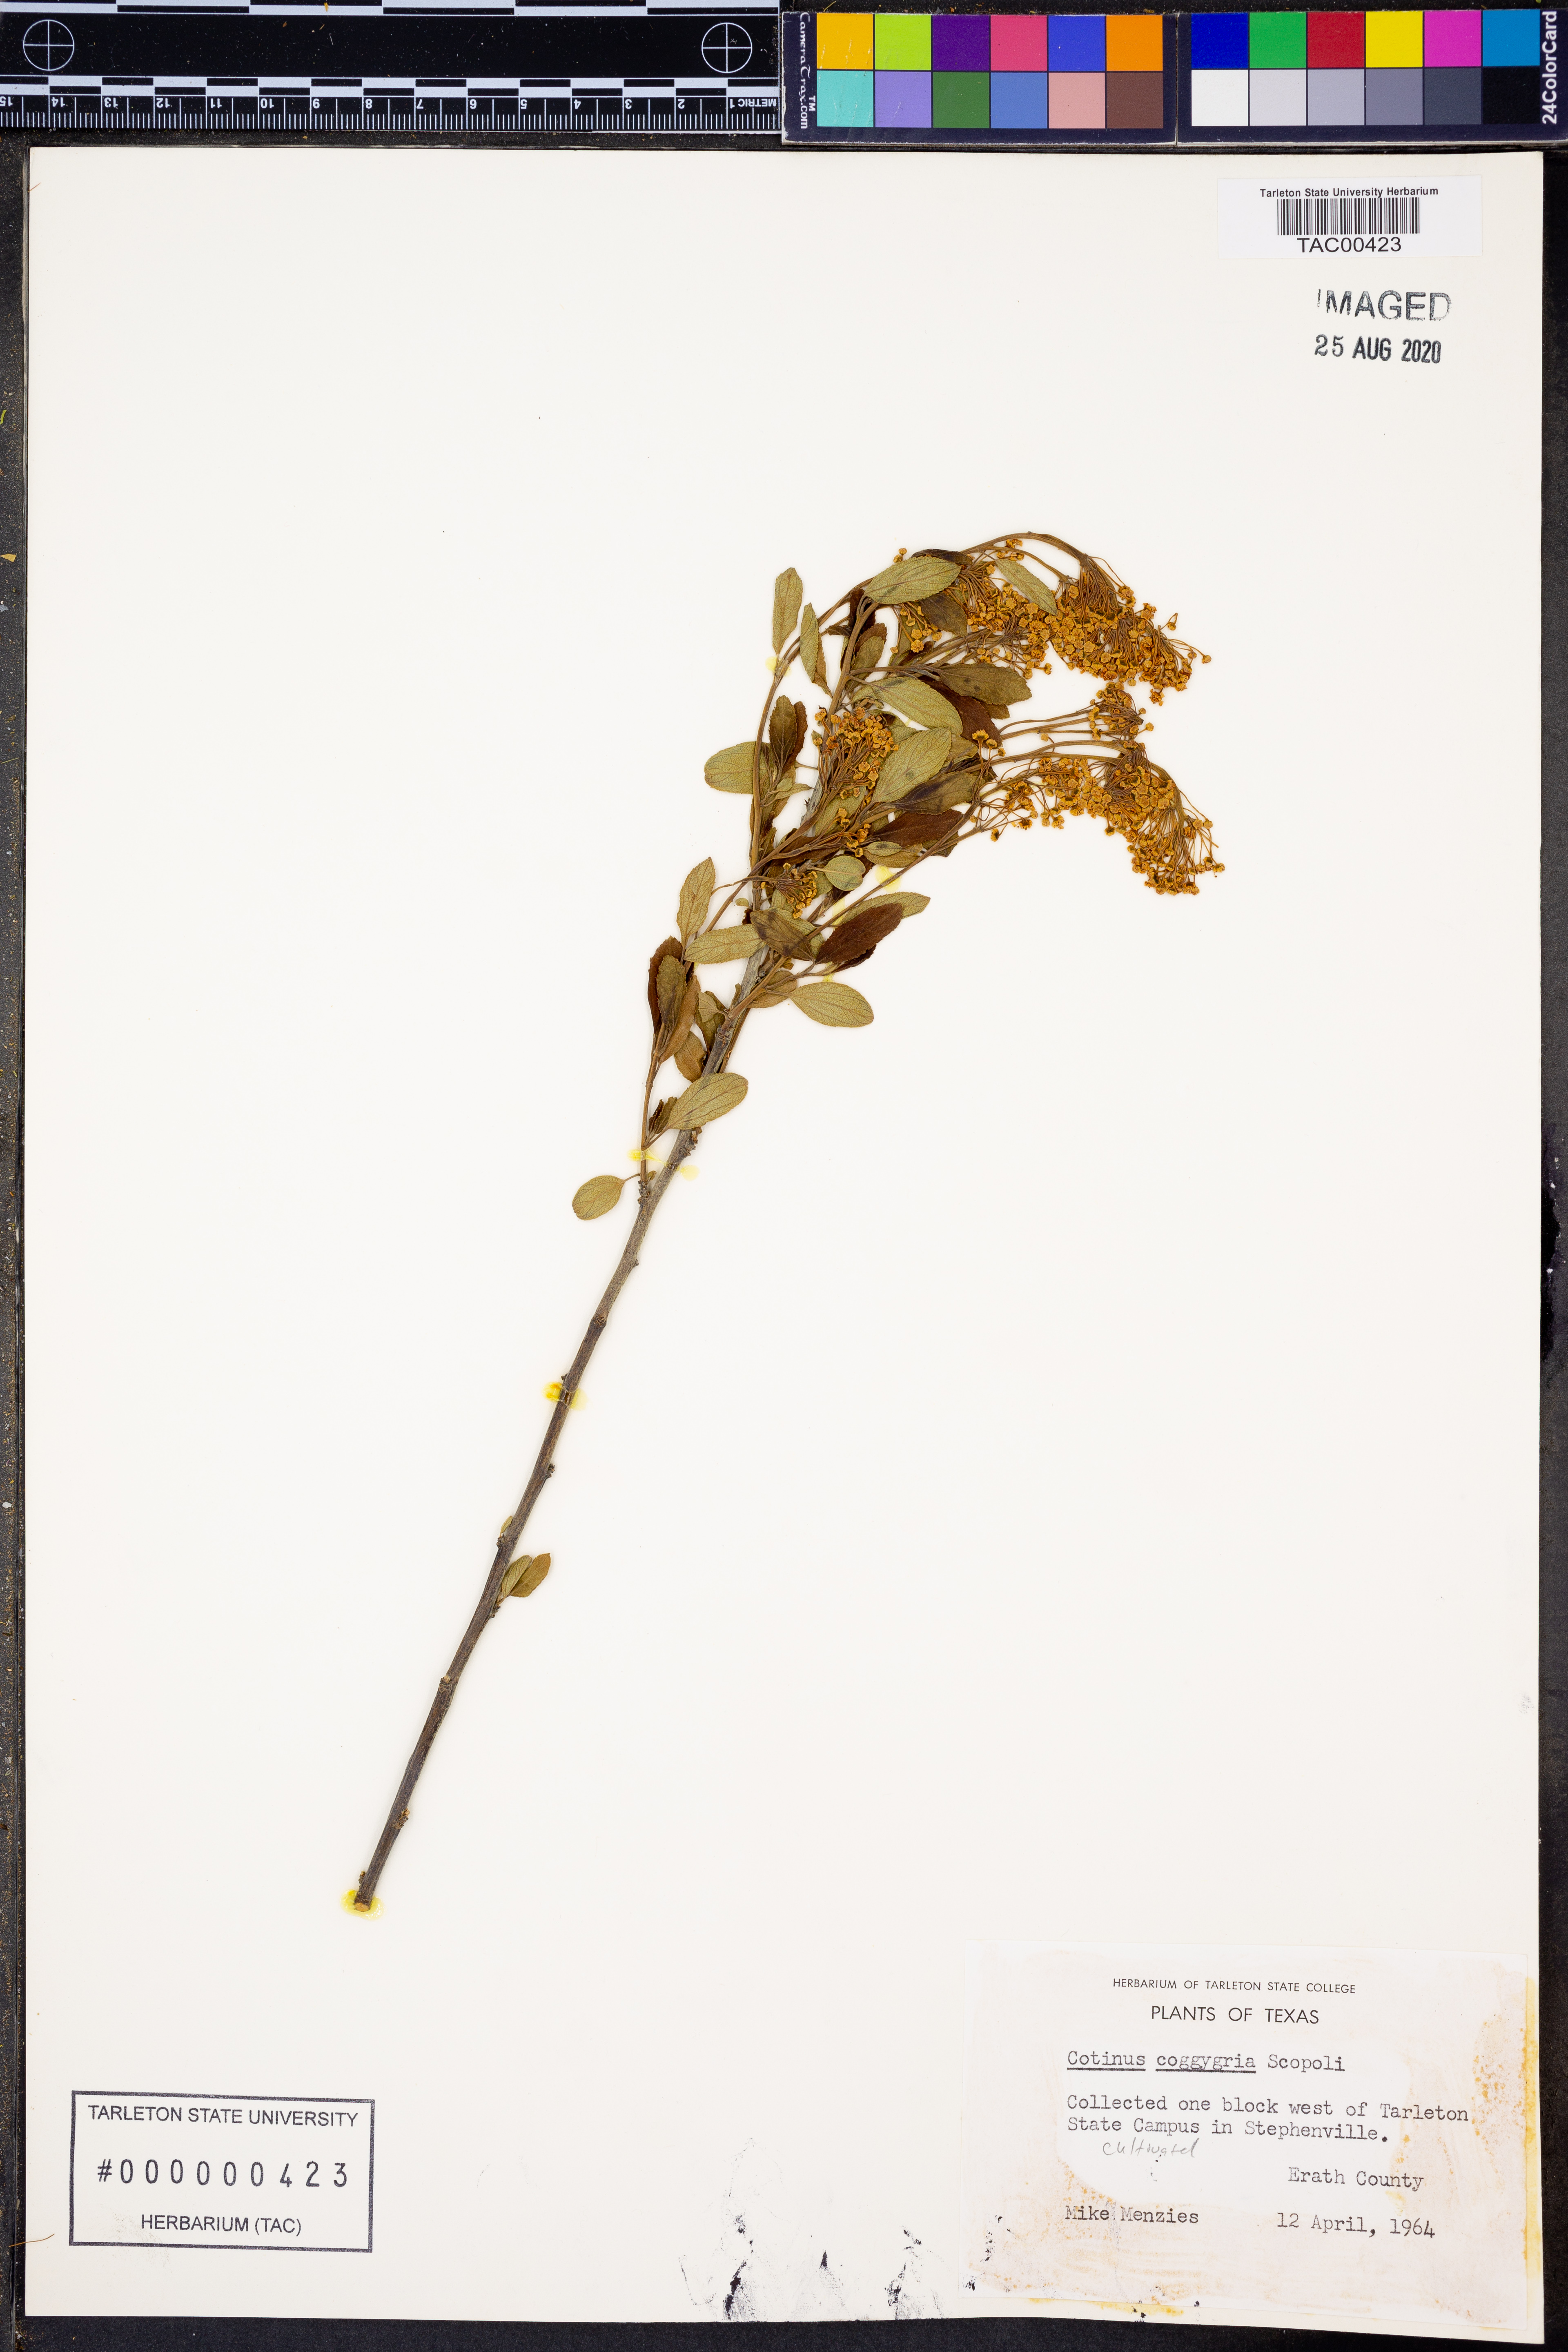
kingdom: Plantae
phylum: Tracheophyta
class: Magnoliopsida
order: Sapindales
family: Anacardiaceae
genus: Cotinus
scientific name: Cotinus coggygria
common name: Smoke-tree
